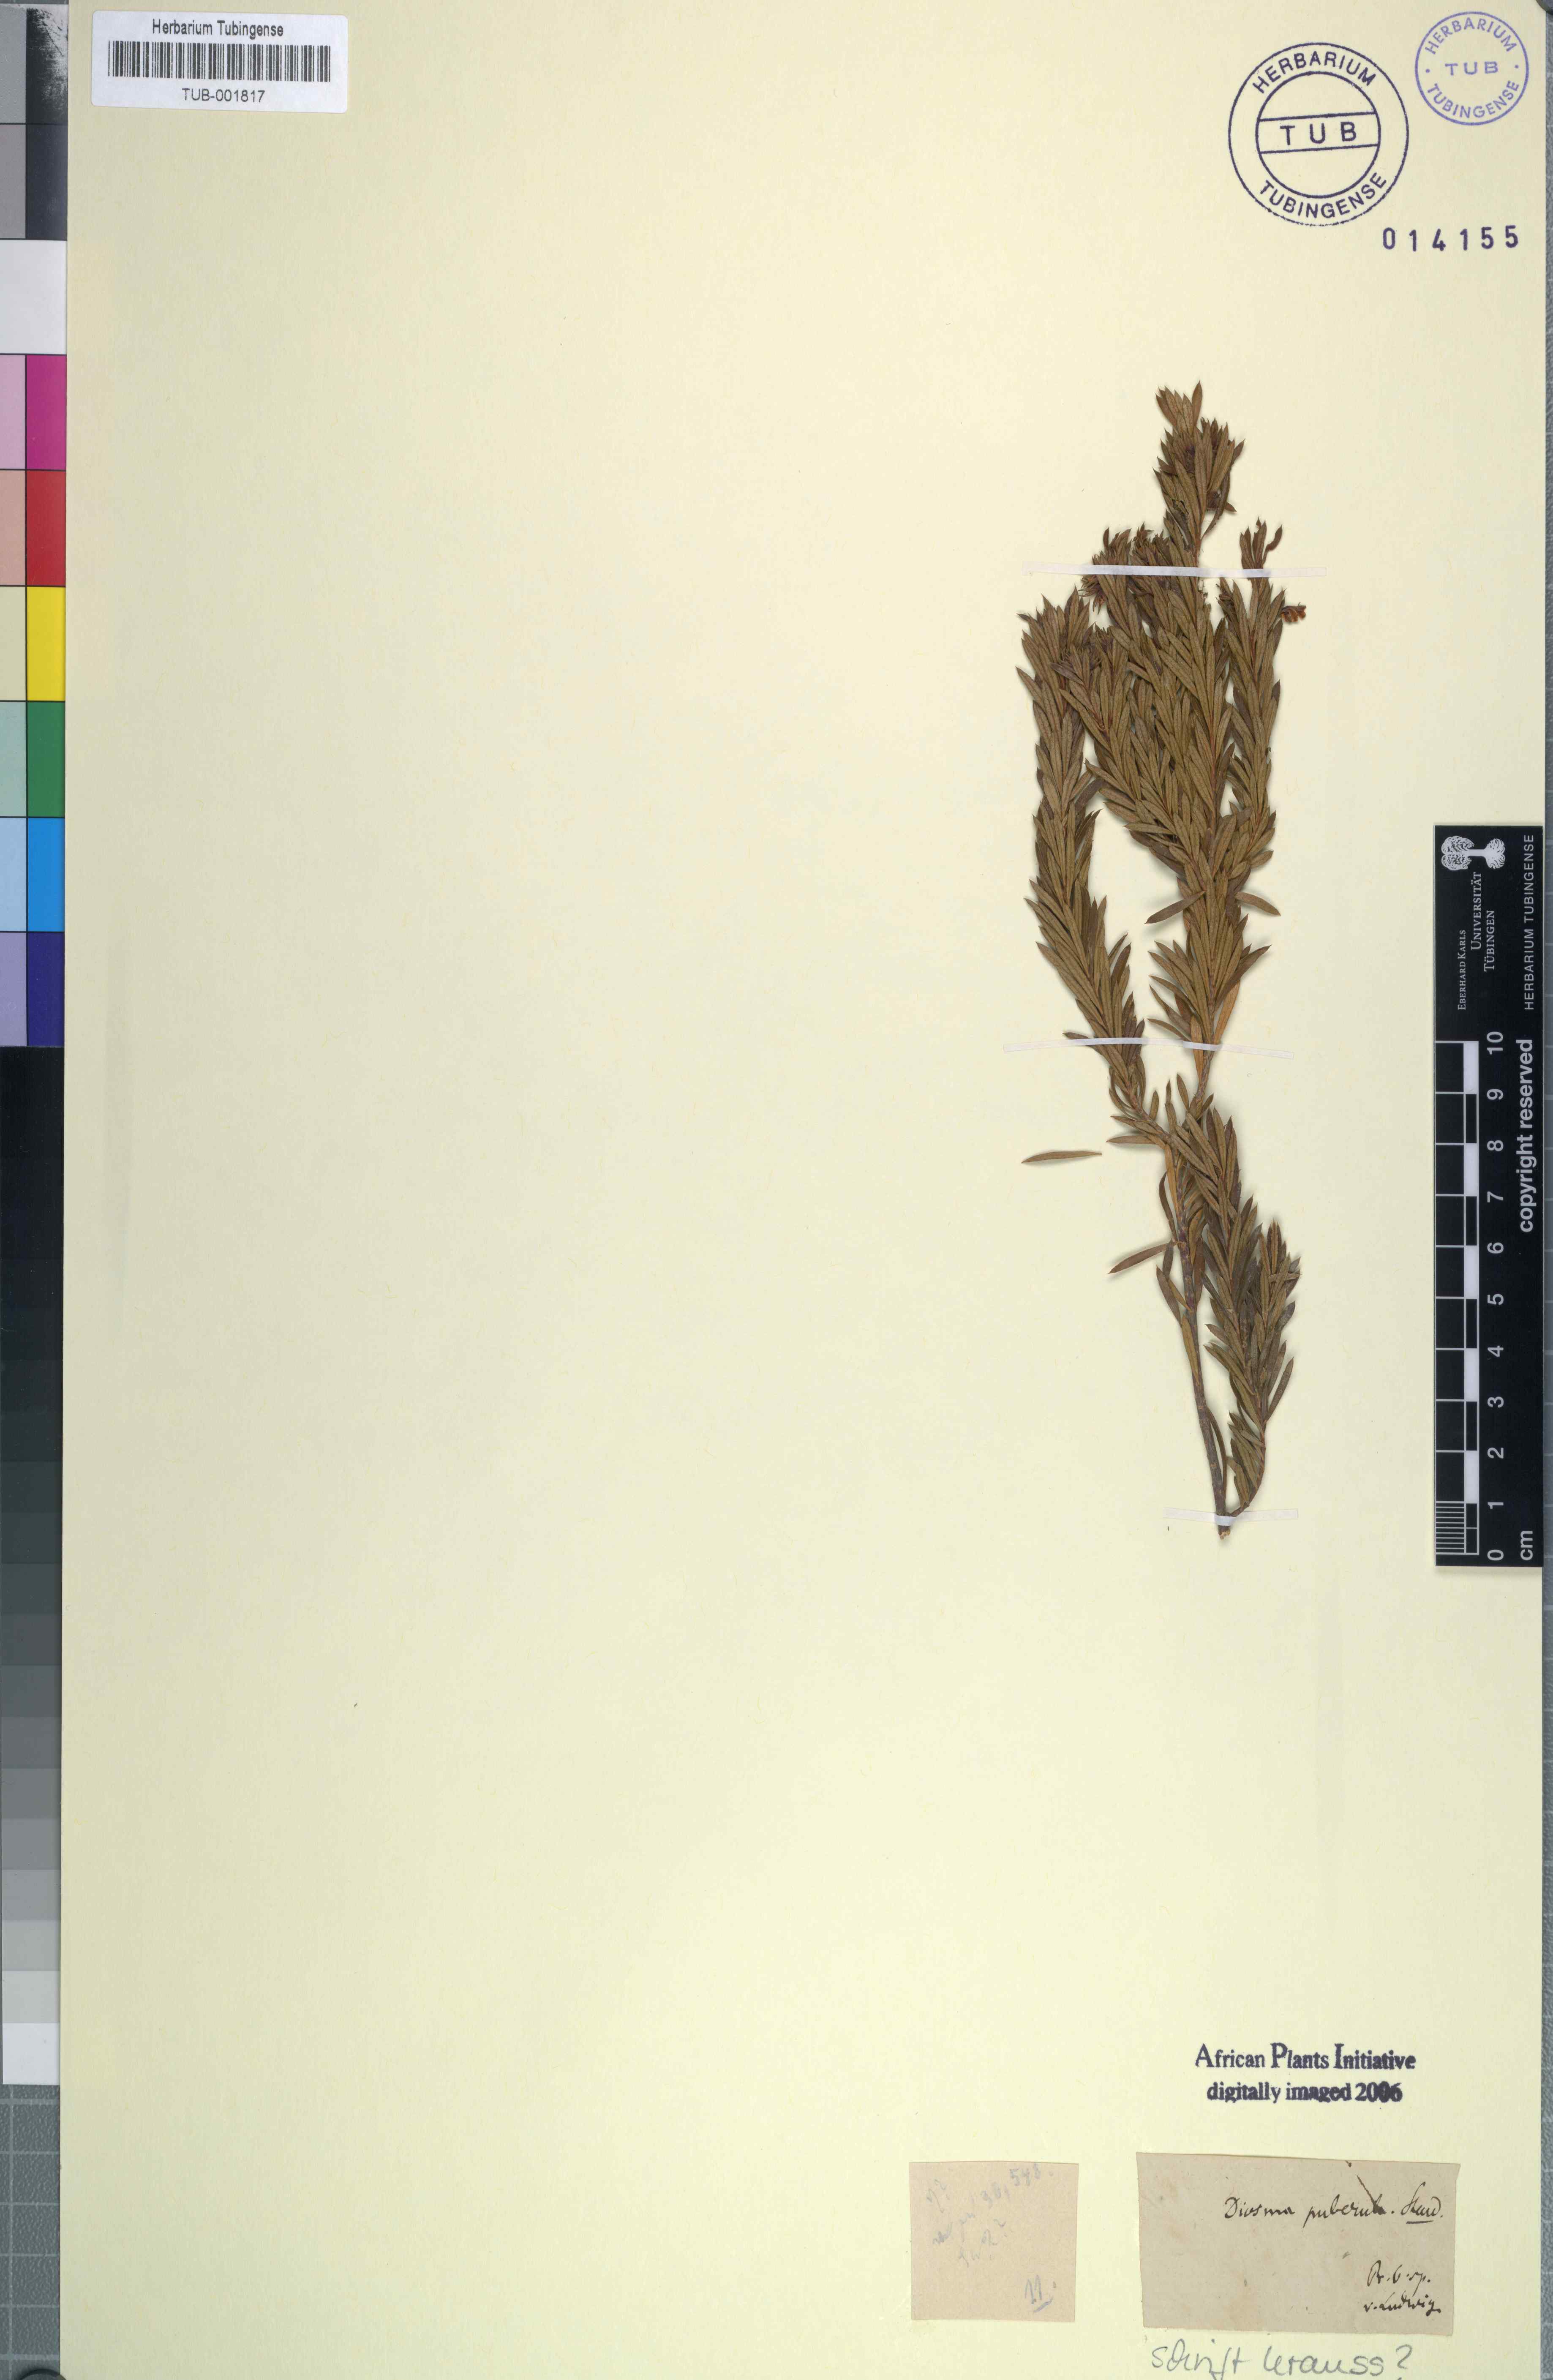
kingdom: Plantae
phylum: Tracheophyta
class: Magnoliopsida
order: Sapindales
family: Rutaceae
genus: Agathosma
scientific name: Agathosma puberula
